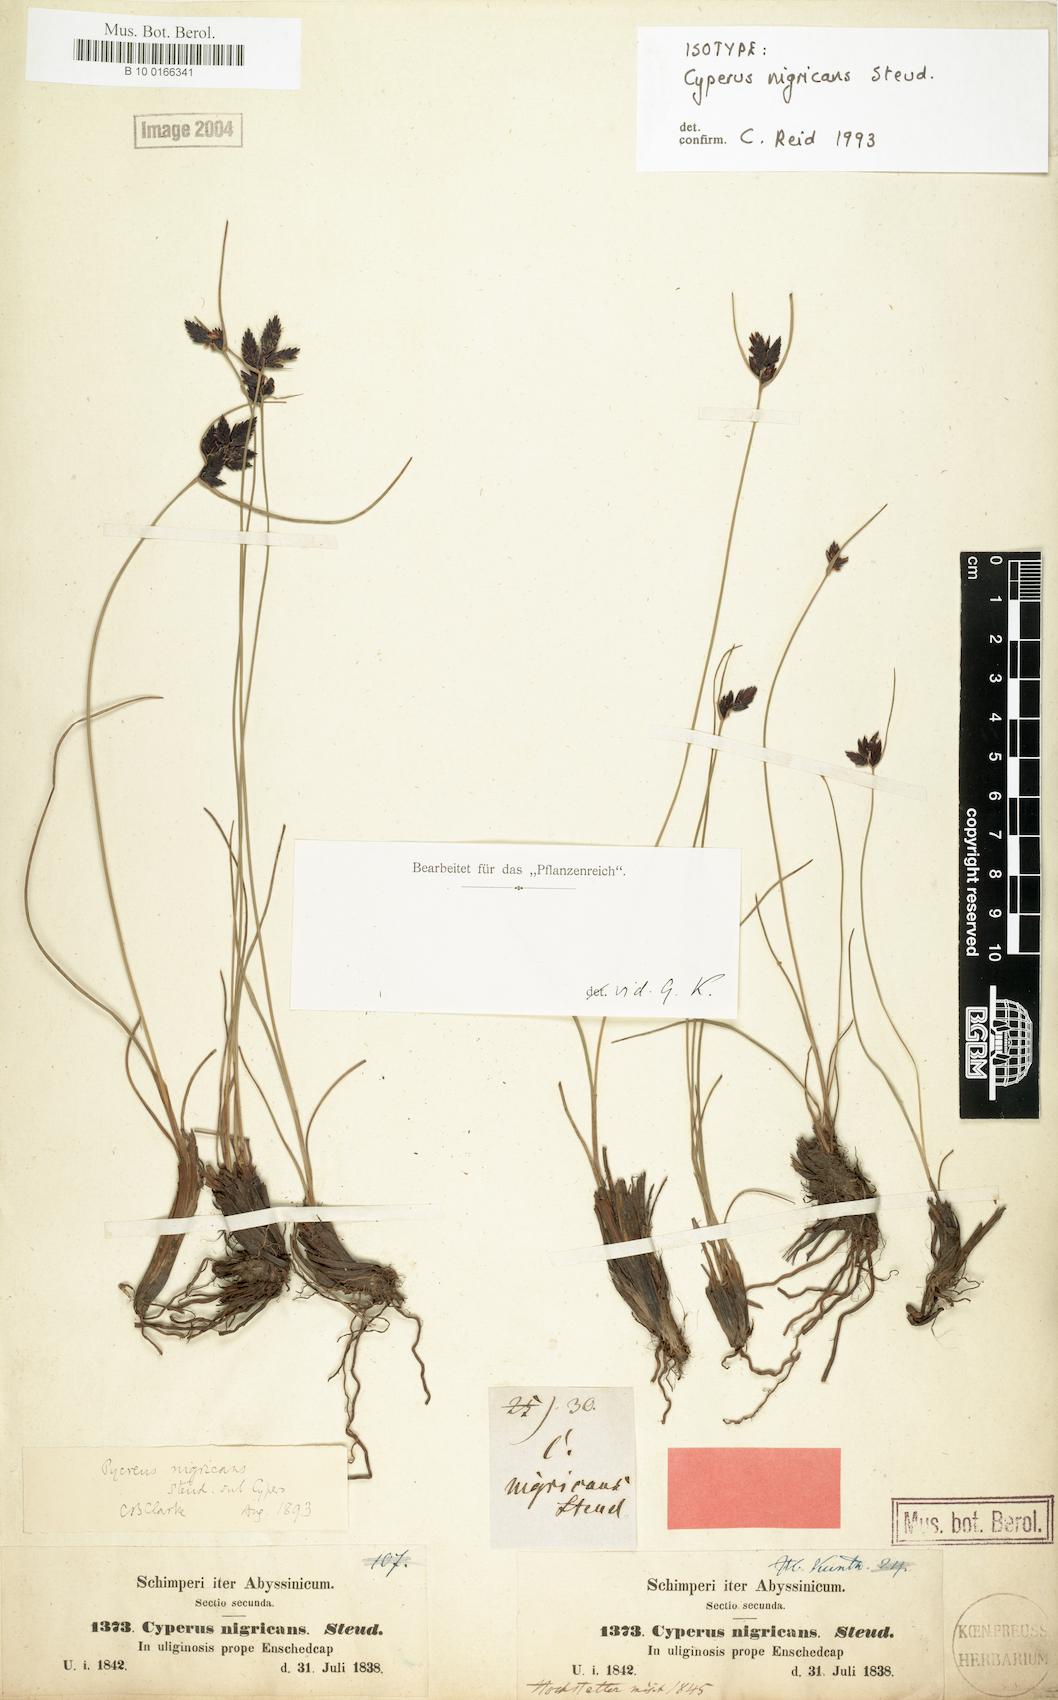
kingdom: Plantae
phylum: Tracheophyta
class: Liliopsida
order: Poales
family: Cyperaceae
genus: Cyperus
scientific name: Cyperus nigricans
